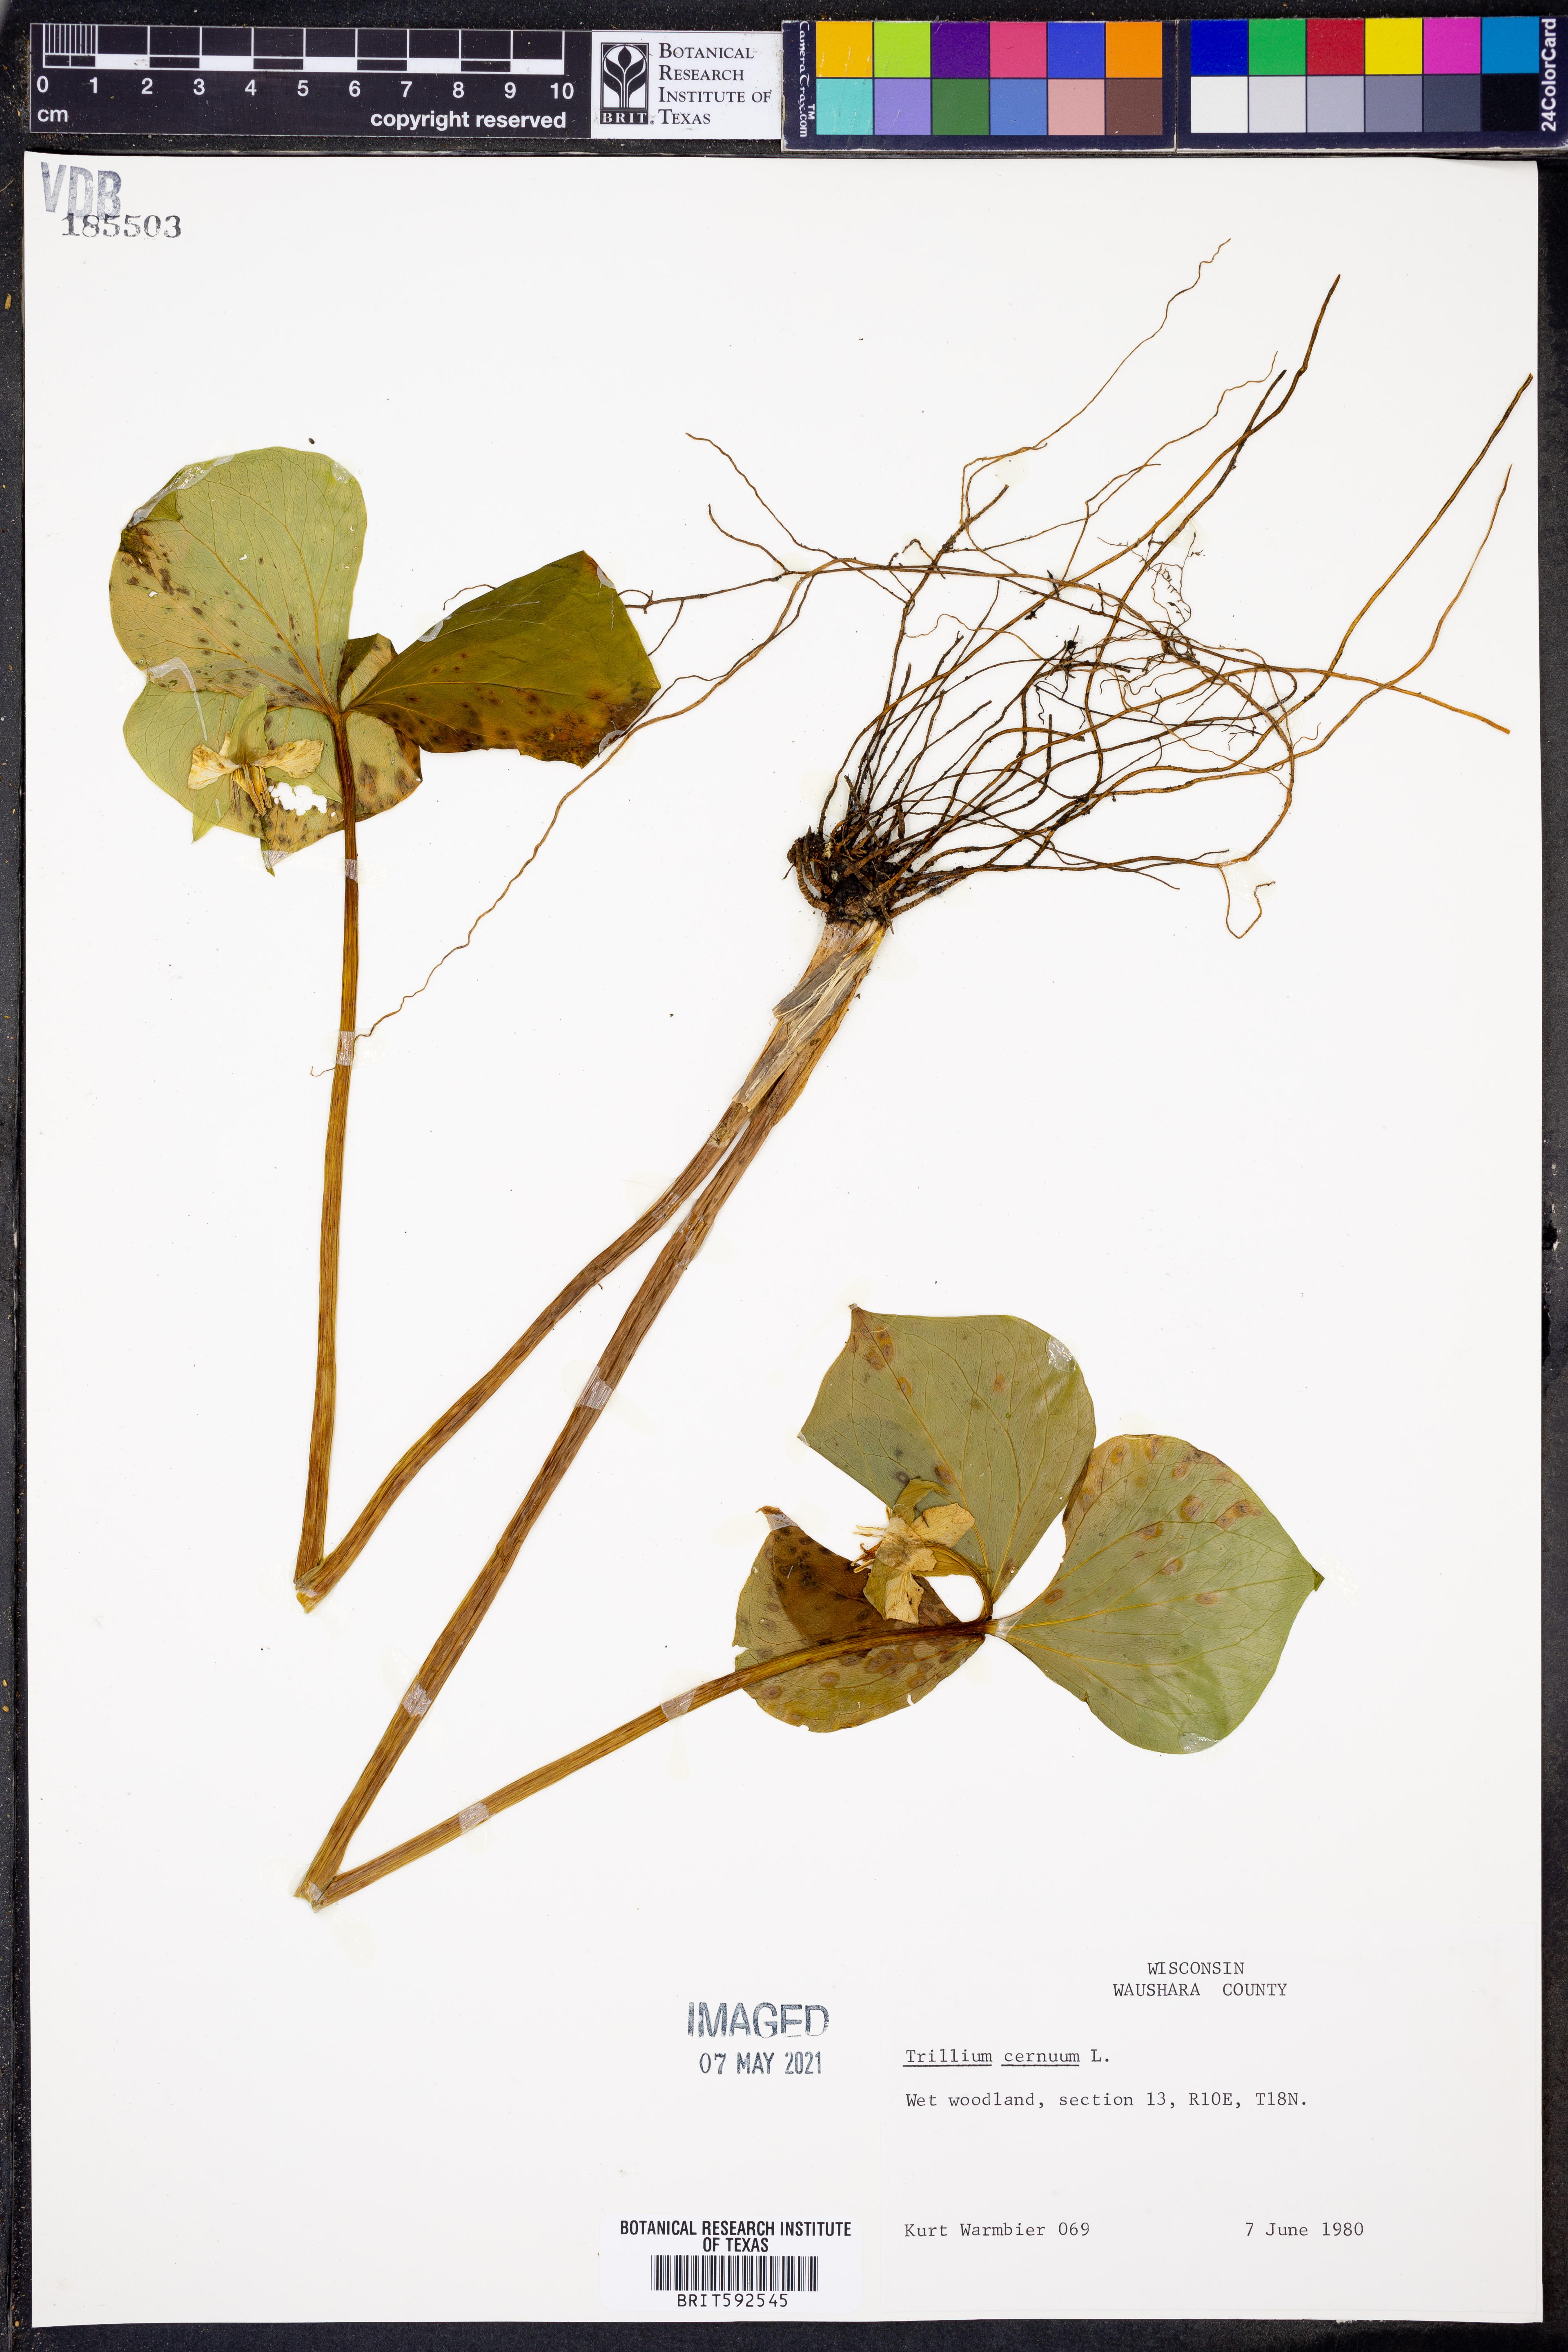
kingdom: Plantae
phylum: Tracheophyta
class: Liliopsida
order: Liliales
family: Melanthiaceae
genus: Trillium
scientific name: Trillium cernuum
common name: Nodding trillium
